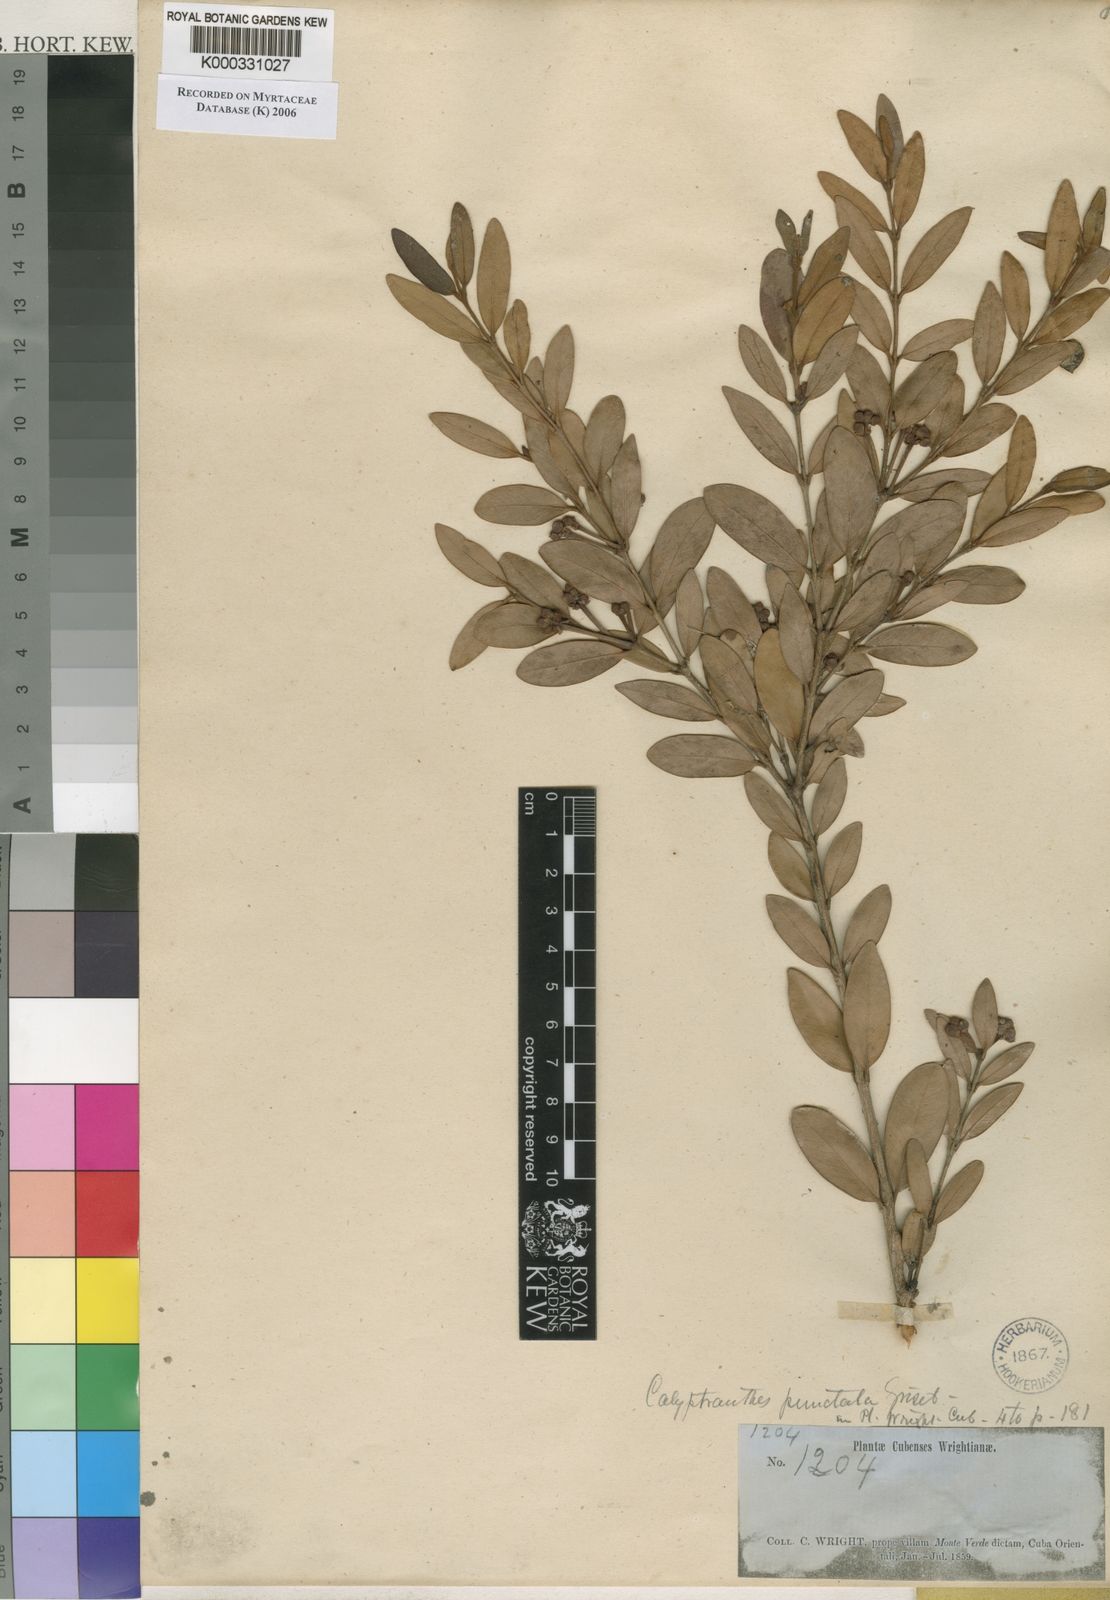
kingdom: Plantae
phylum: Tracheophyta
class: Magnoliopsida
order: Myrtales
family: Myrtaceae
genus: Myrcia
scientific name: Myrcia foramina
